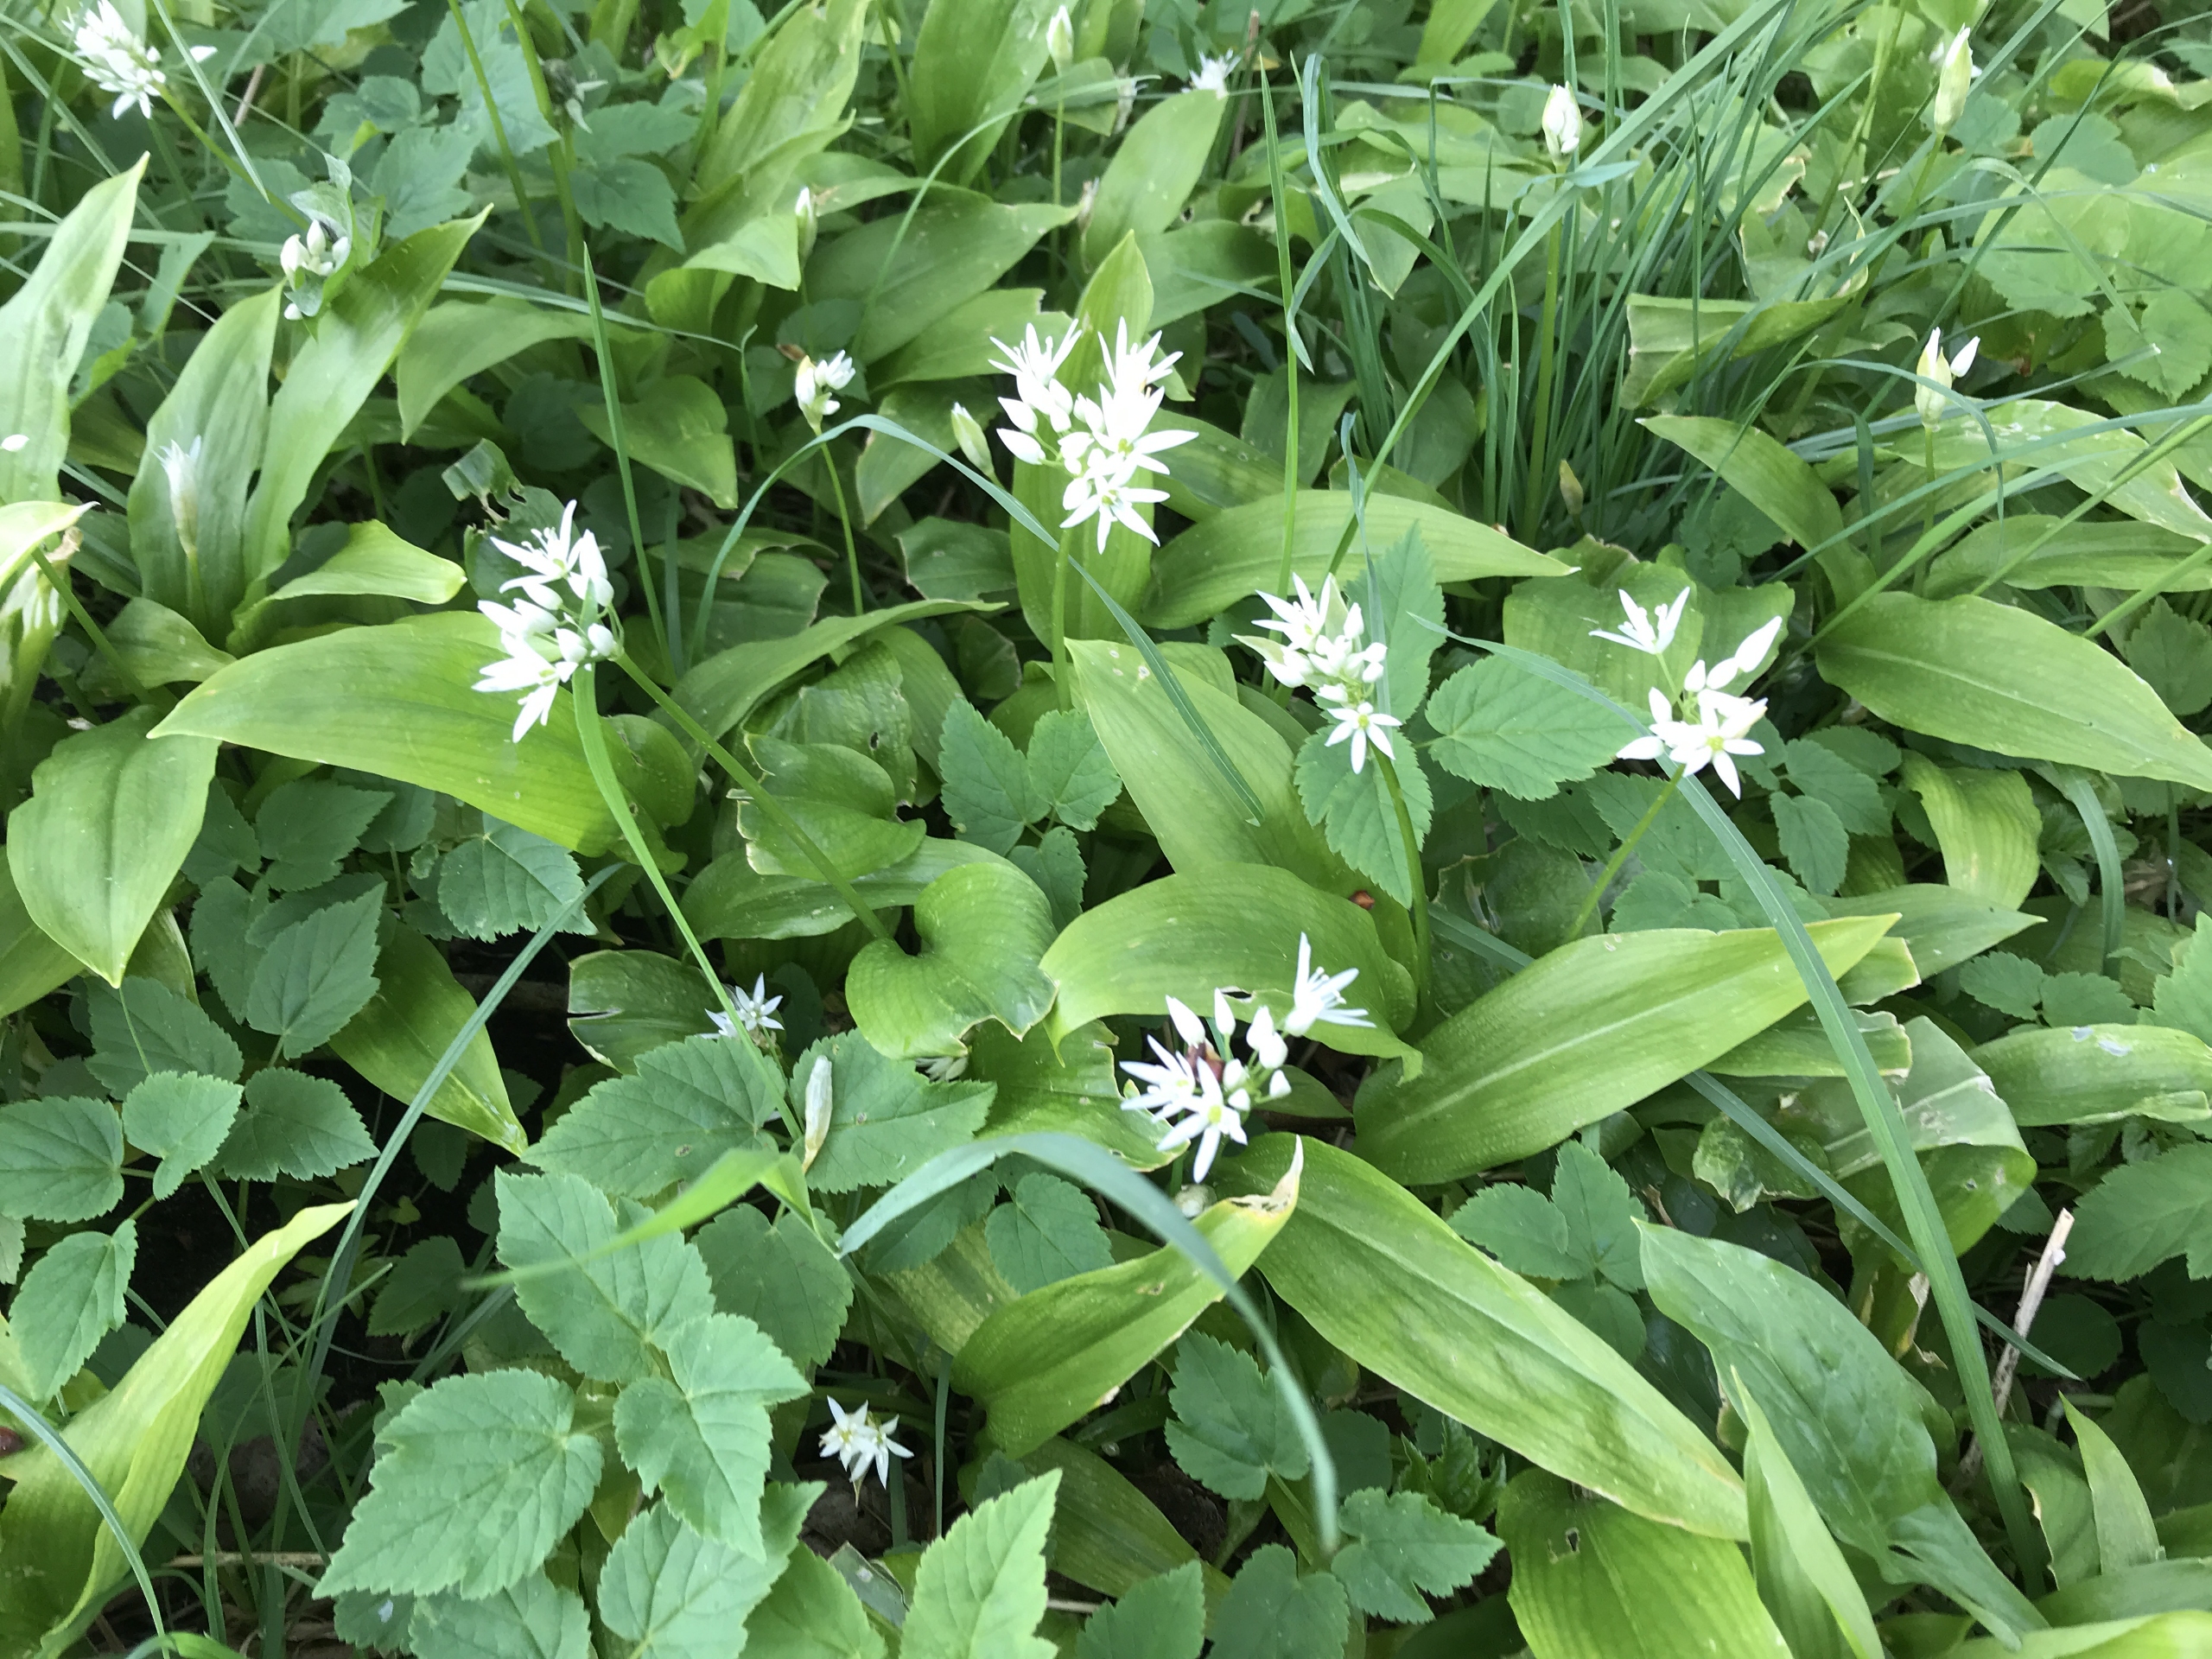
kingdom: Plantae
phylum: Tracheophyta
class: Liliopsida
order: Asparagales
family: Amaryllidaceae
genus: Allium
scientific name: Allium ursinum
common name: Rams-løg
